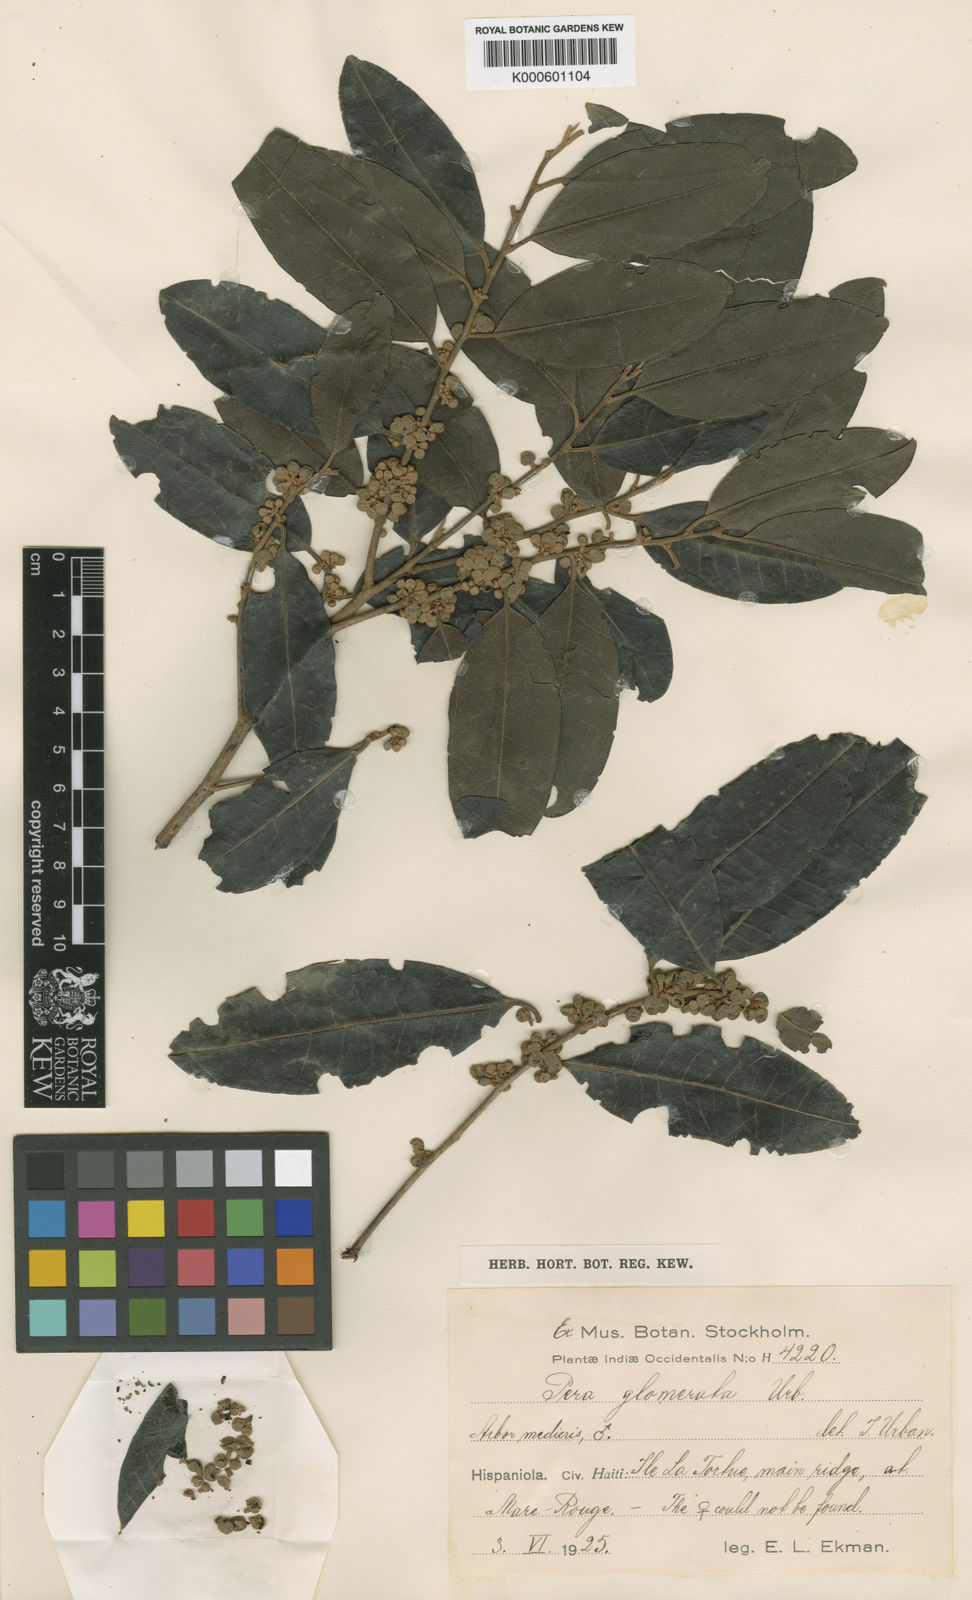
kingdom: Plantae
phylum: Tracheophyta
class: Magnoliopsida
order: Malpighiales
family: Peraceae
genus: Pera
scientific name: Pera glomerata
